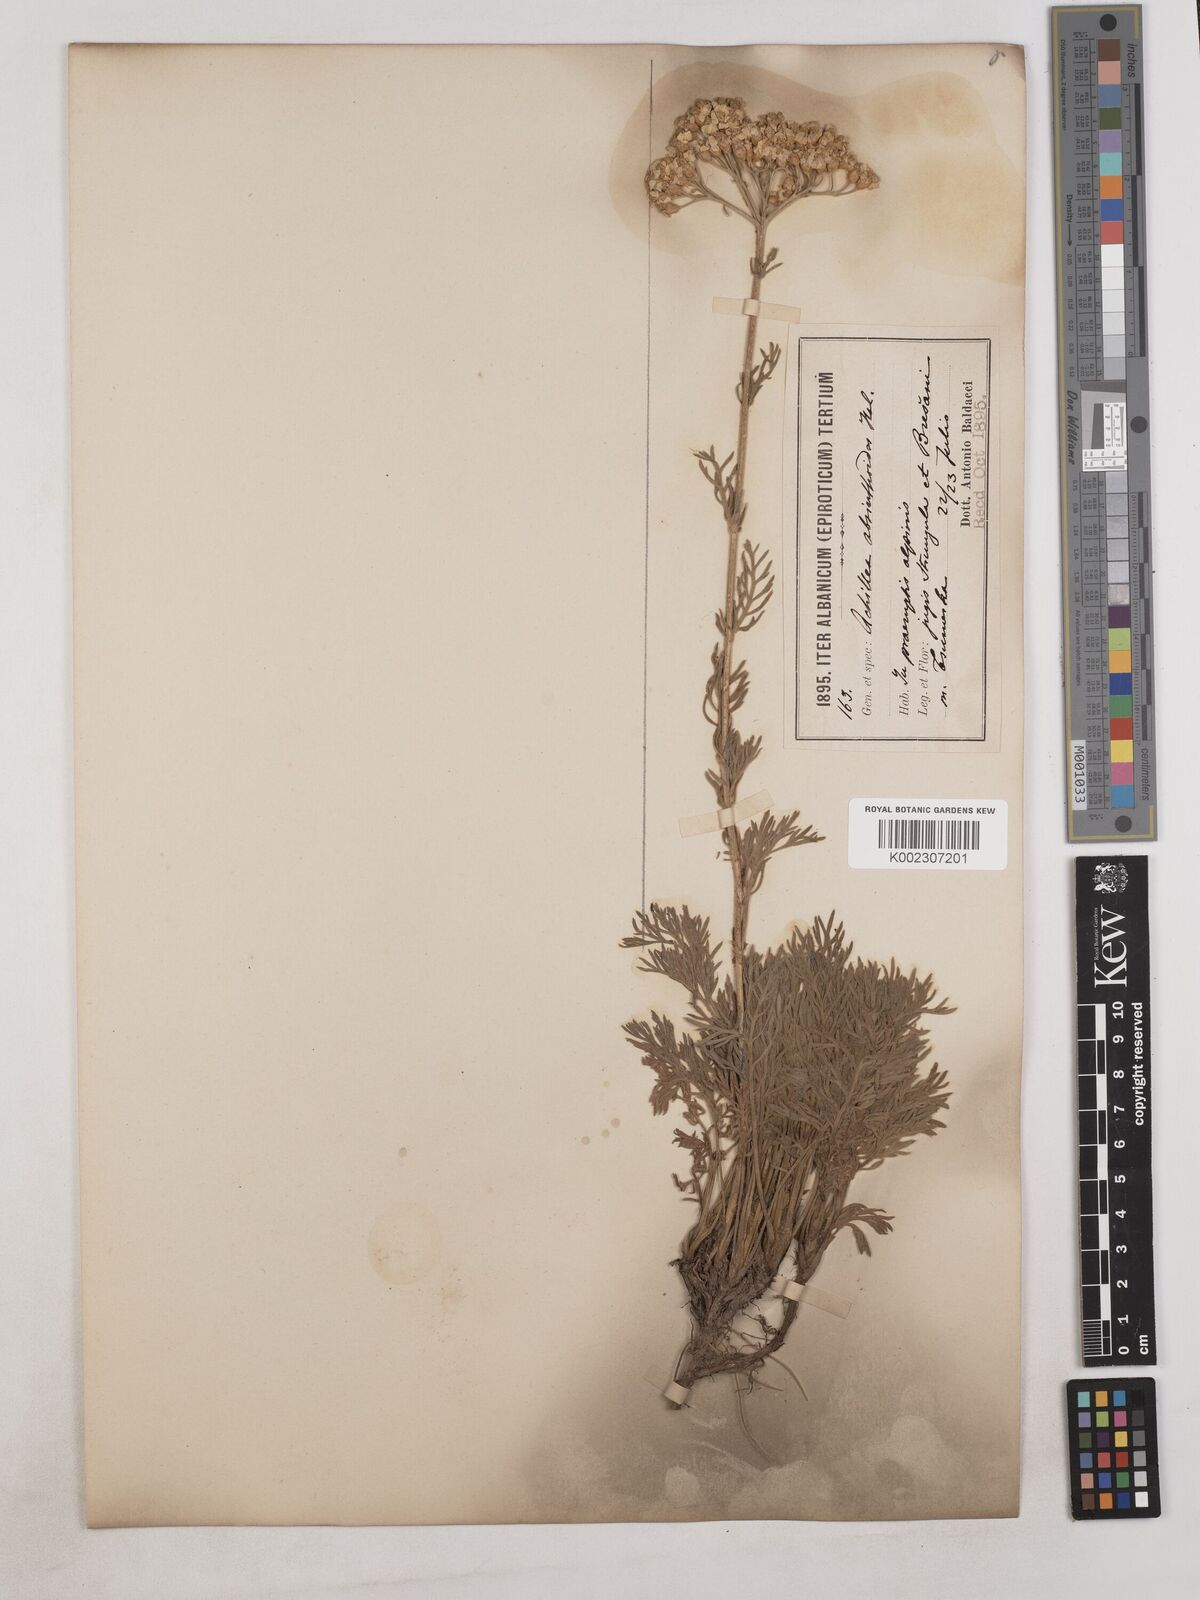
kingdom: Plantae
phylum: Tracheophyta
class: Magnoliopsida
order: Asterales
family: Asteraceae
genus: Achillea
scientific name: Achillea absinthoides
